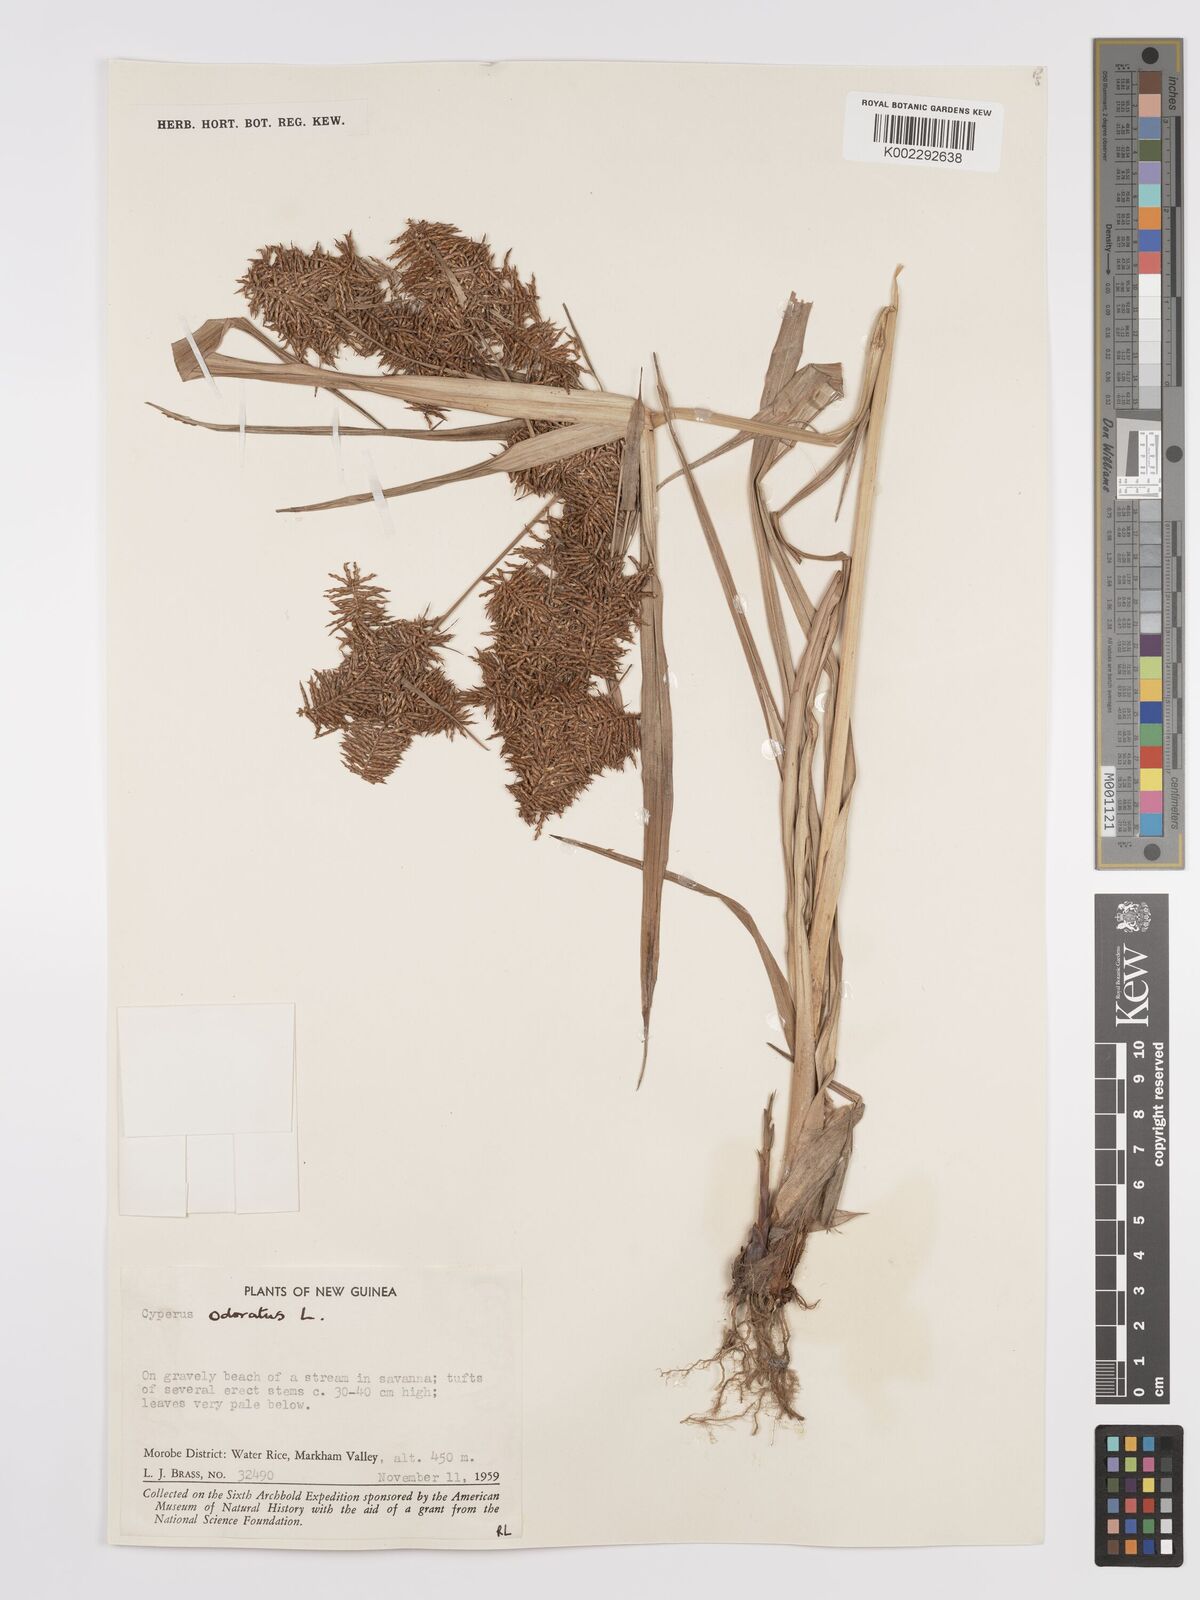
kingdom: Plantae
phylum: Tracheophyta
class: Liliopsida
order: Poales
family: Cyperaceae
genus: Cyperus
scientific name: Cyperus odoratus
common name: Fragrant flatsedge
